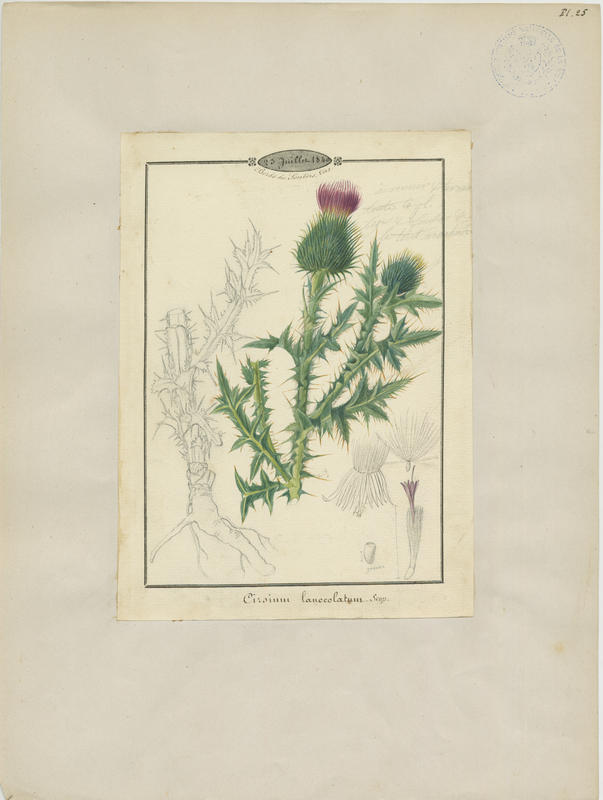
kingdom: Plantae
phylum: Tracheophyta
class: Magnoliopsida
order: Asterales
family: Asteraceae
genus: Cirsium
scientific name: Cirsium vulgare
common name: Bull thistle
